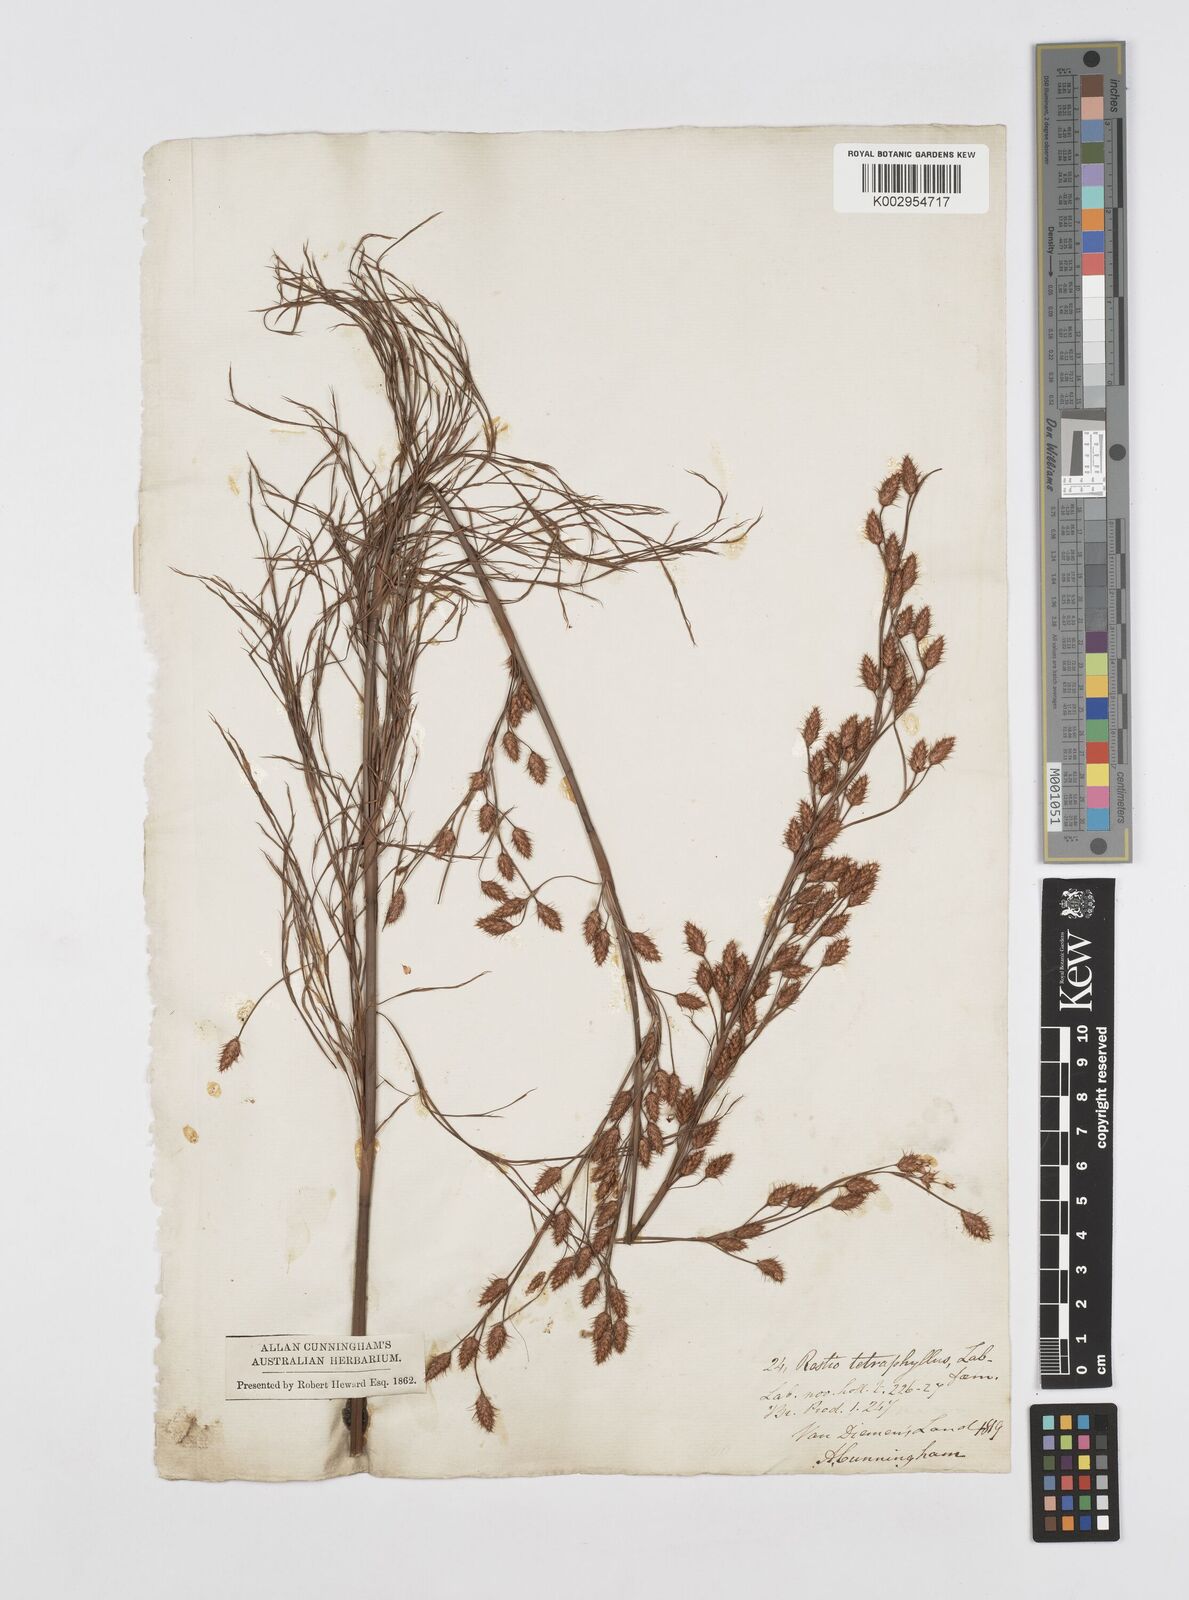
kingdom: Plantae
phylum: Tracheophyta
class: Liliopsida
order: Poales
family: Restionaceae
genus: Baloskion
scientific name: Baloskion tetraphyllum
